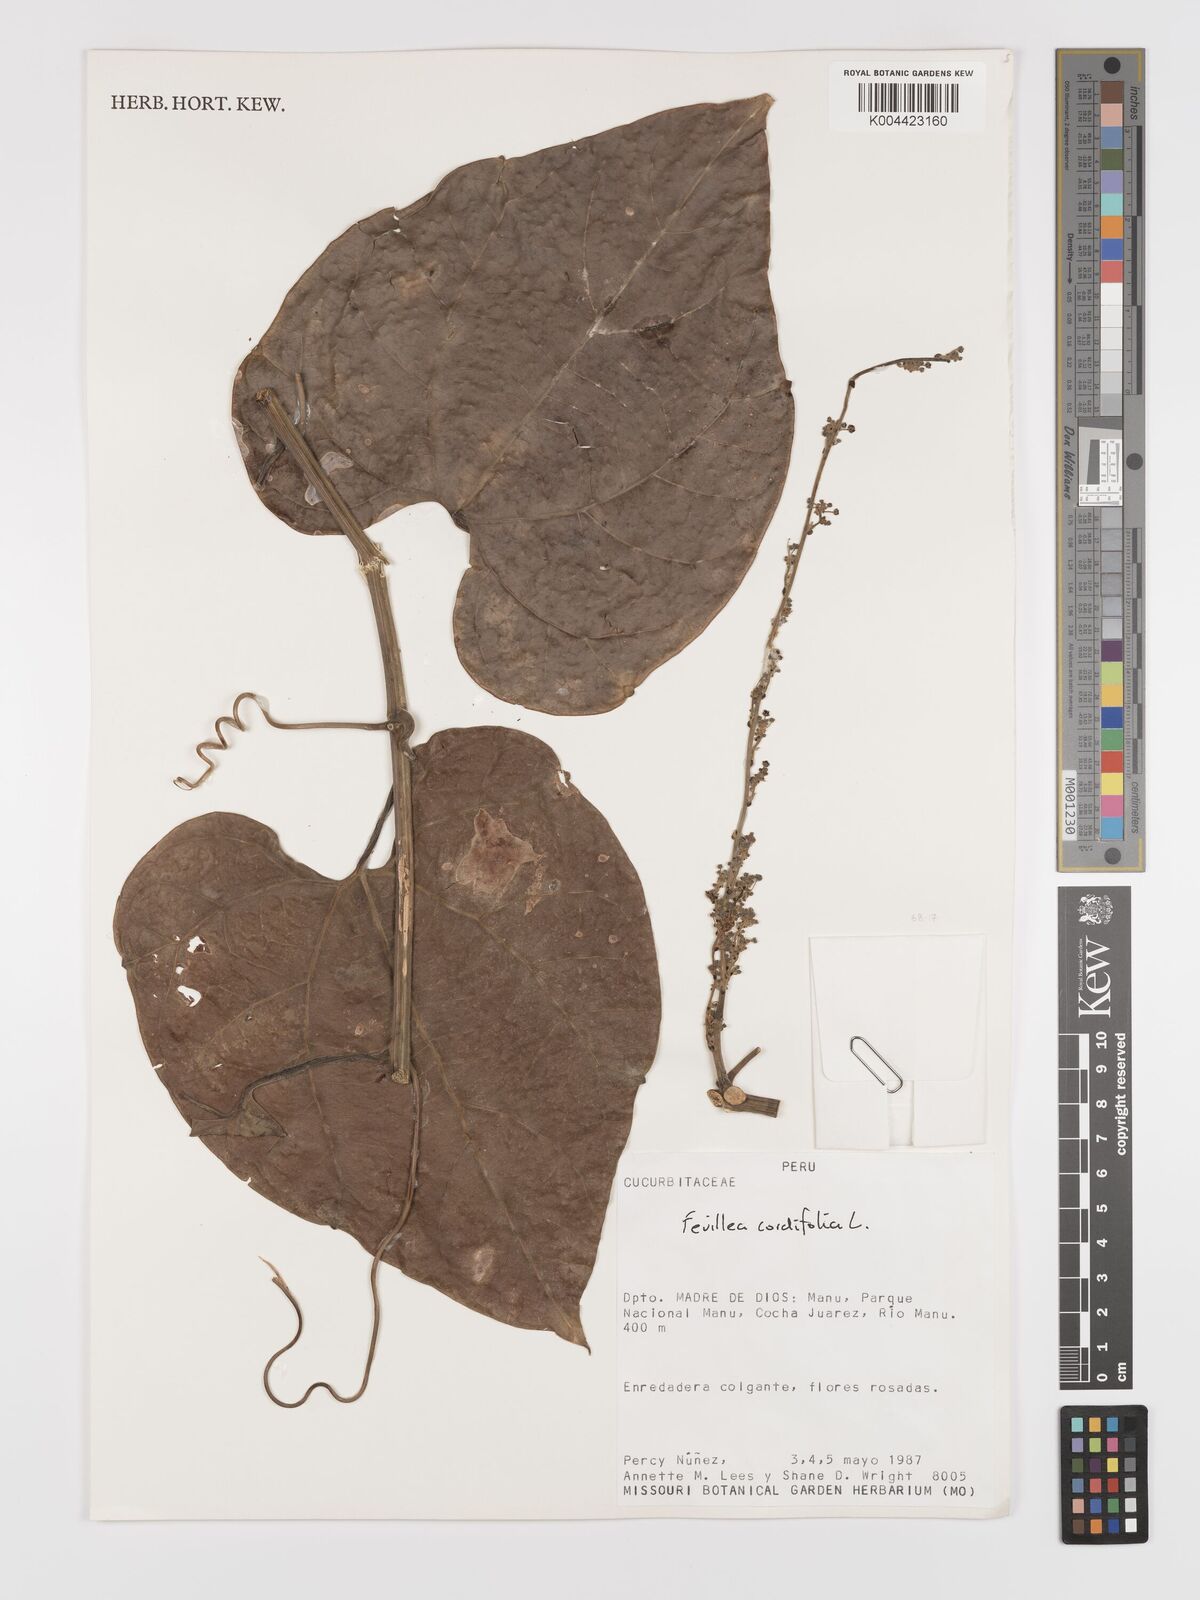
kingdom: Plantae
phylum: Tracheophyta
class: Magnoliopsida
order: Cucurbitales
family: Cucurbitaceae
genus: Fevillea
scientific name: Fevillea
